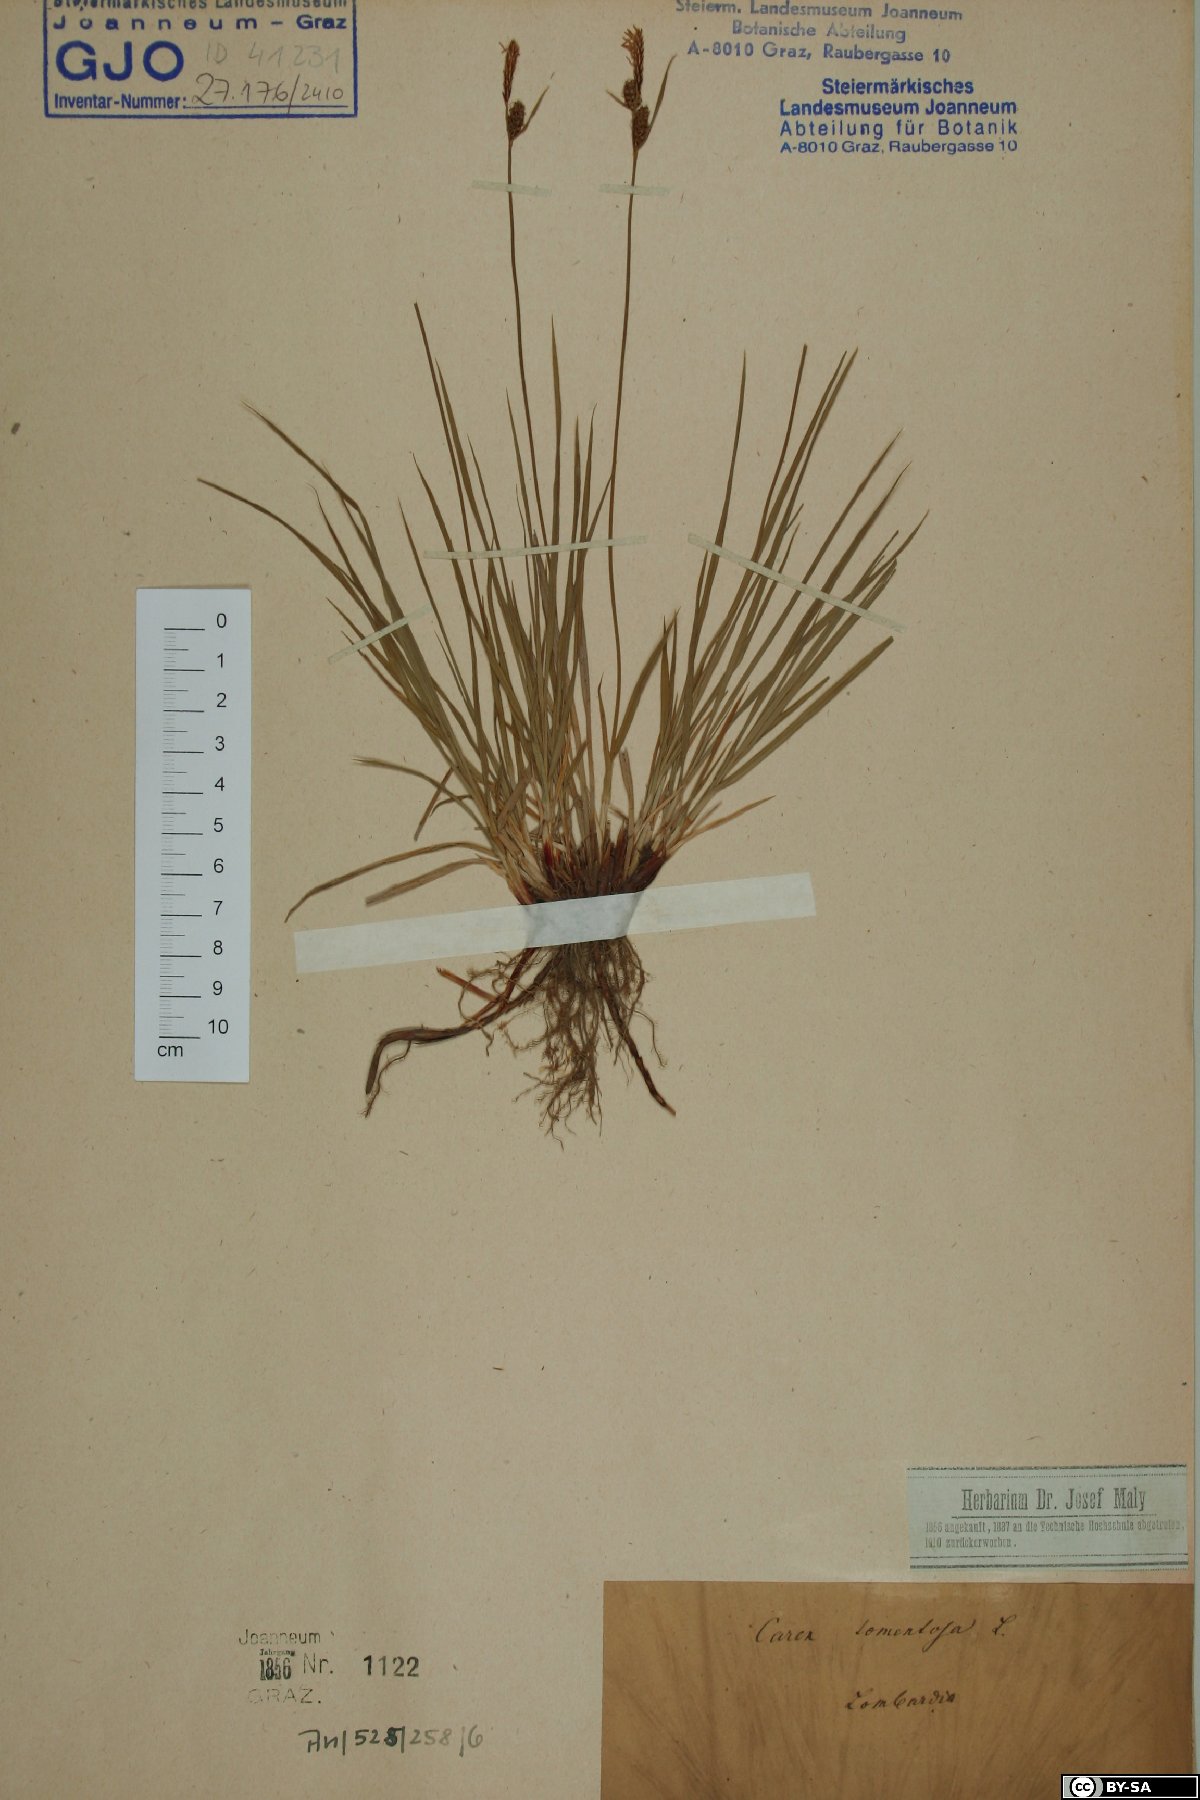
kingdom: Plantae
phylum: Tracheophyta
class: Liliopsida
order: Poales
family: Cyperaceae
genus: Carex
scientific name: Carex tomentosa
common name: Downy-fruited sedge
